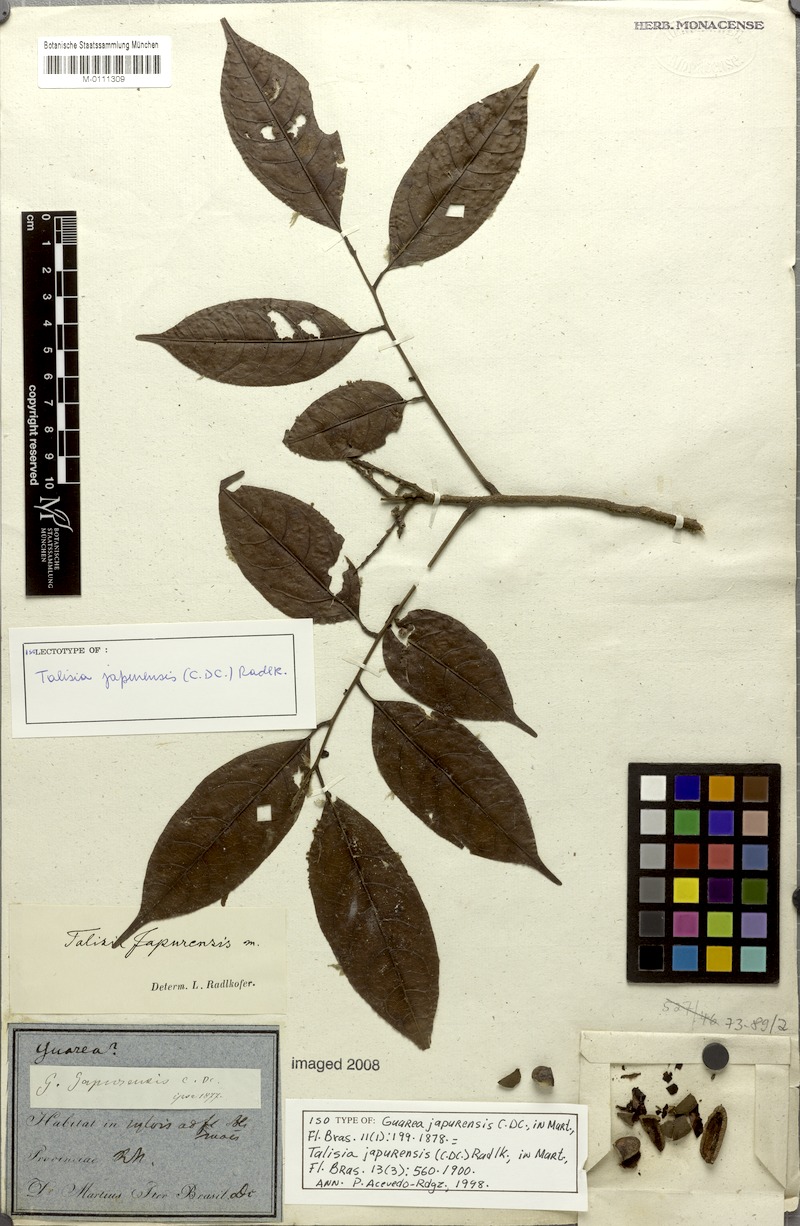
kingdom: Plantae
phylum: Tracheophyta
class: Magnoliopsida
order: Sapindales
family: Sapindaceae
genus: Talisia
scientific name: Talisia japurensis
